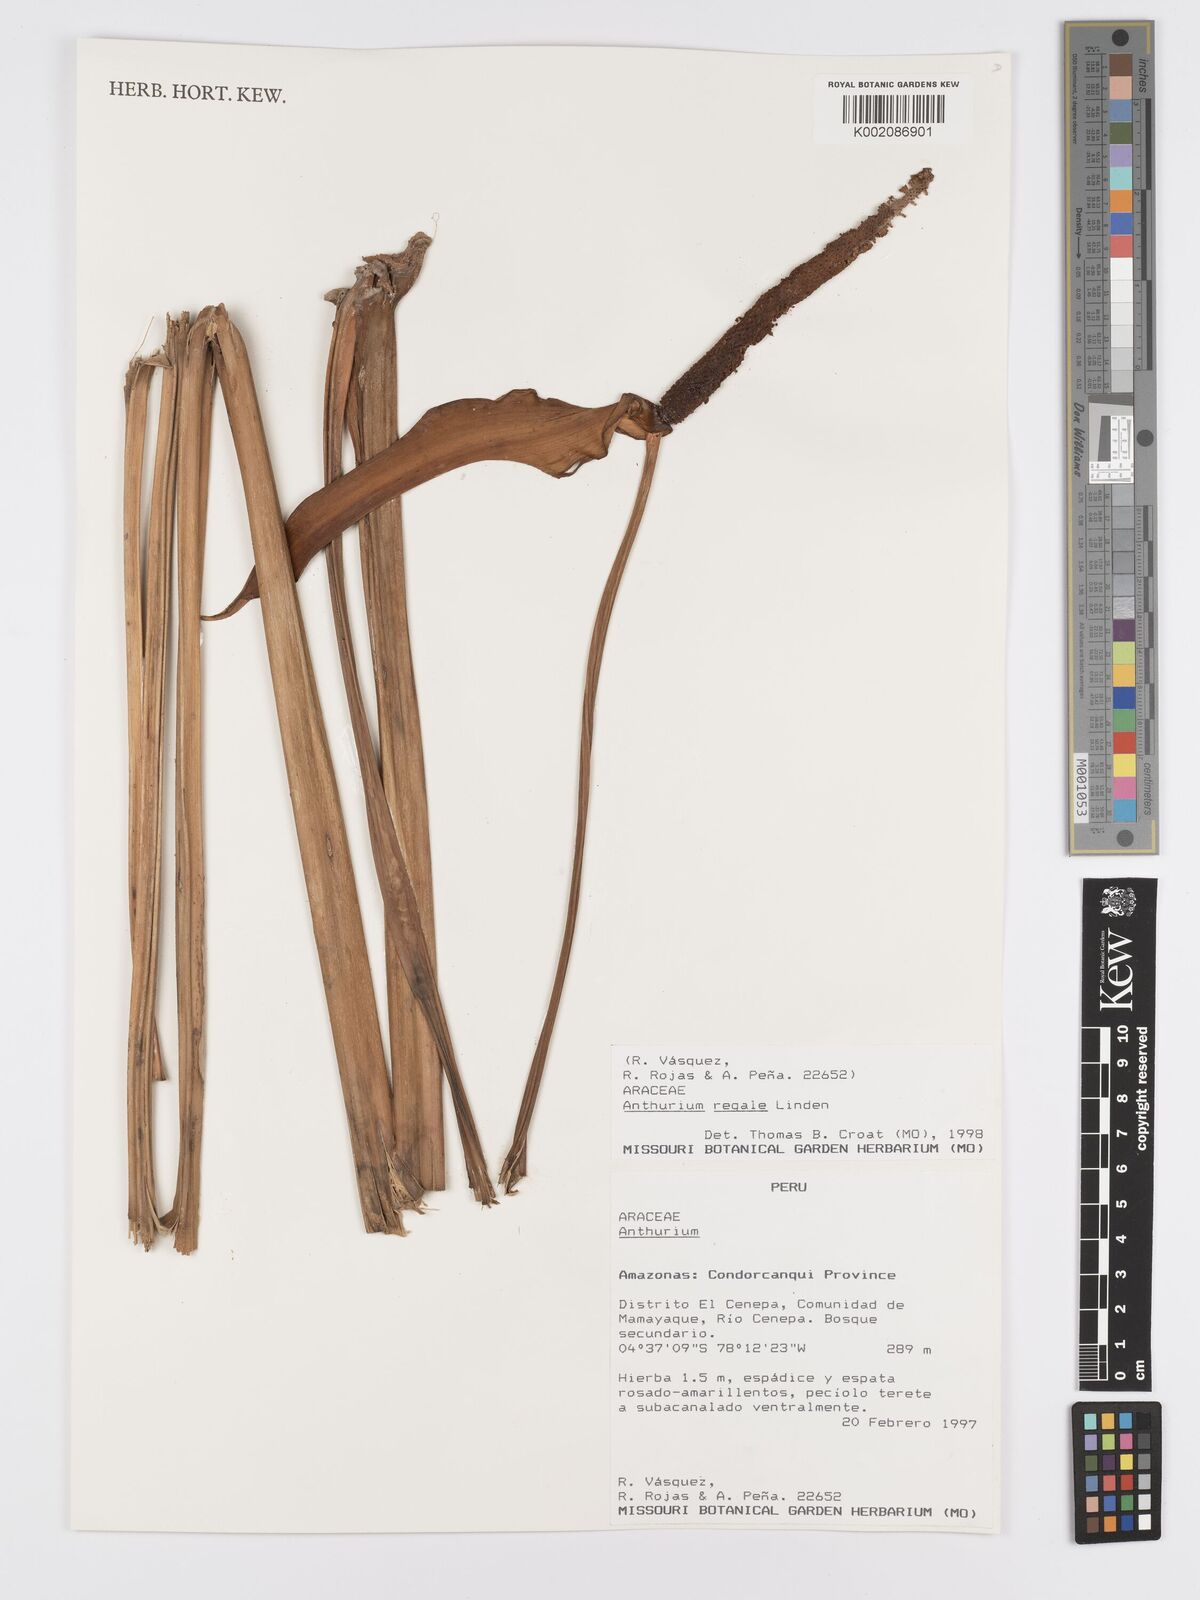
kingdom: Plantae
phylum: Tracheophyta
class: Liliopsida
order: Alismatales
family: Araceae
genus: Anthurium
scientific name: Anthurium regale
